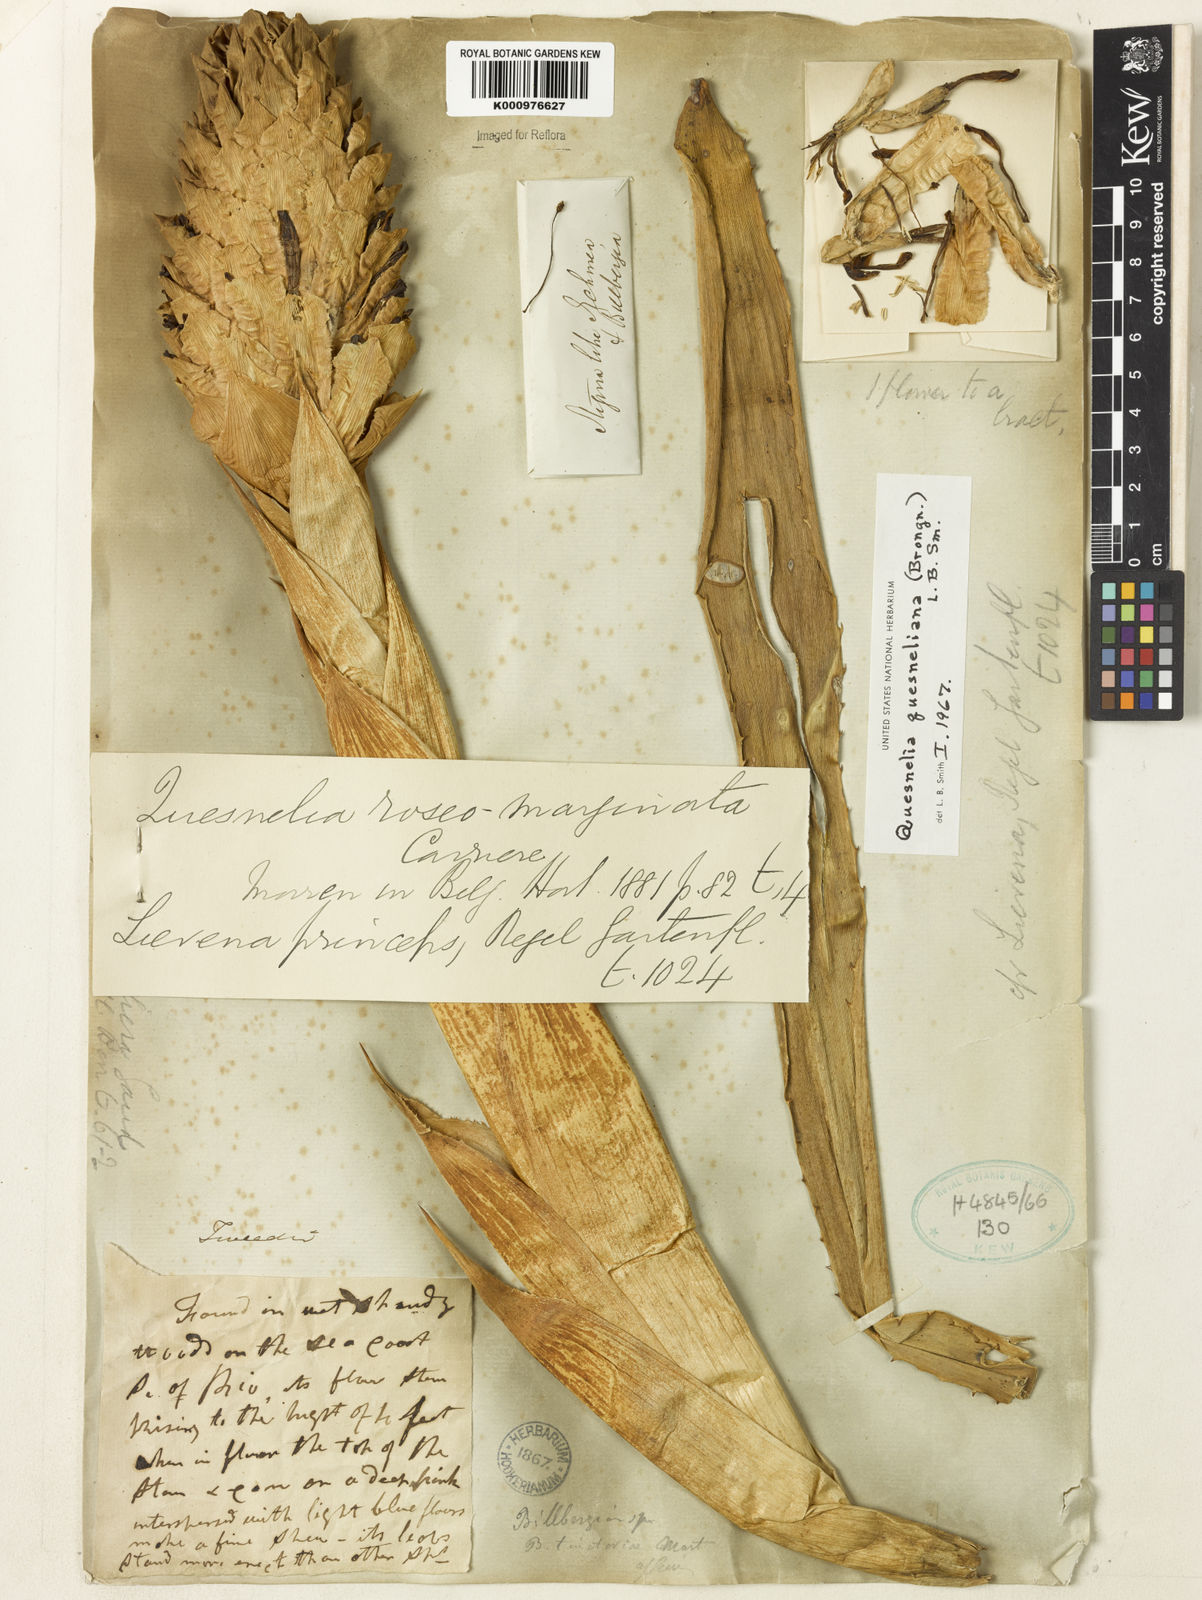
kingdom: Plantae
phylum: Tracheophyta
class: Liliopsida
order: Poales
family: Bromeliaceae
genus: Quesnelia
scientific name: Quesnelia quesneliana
